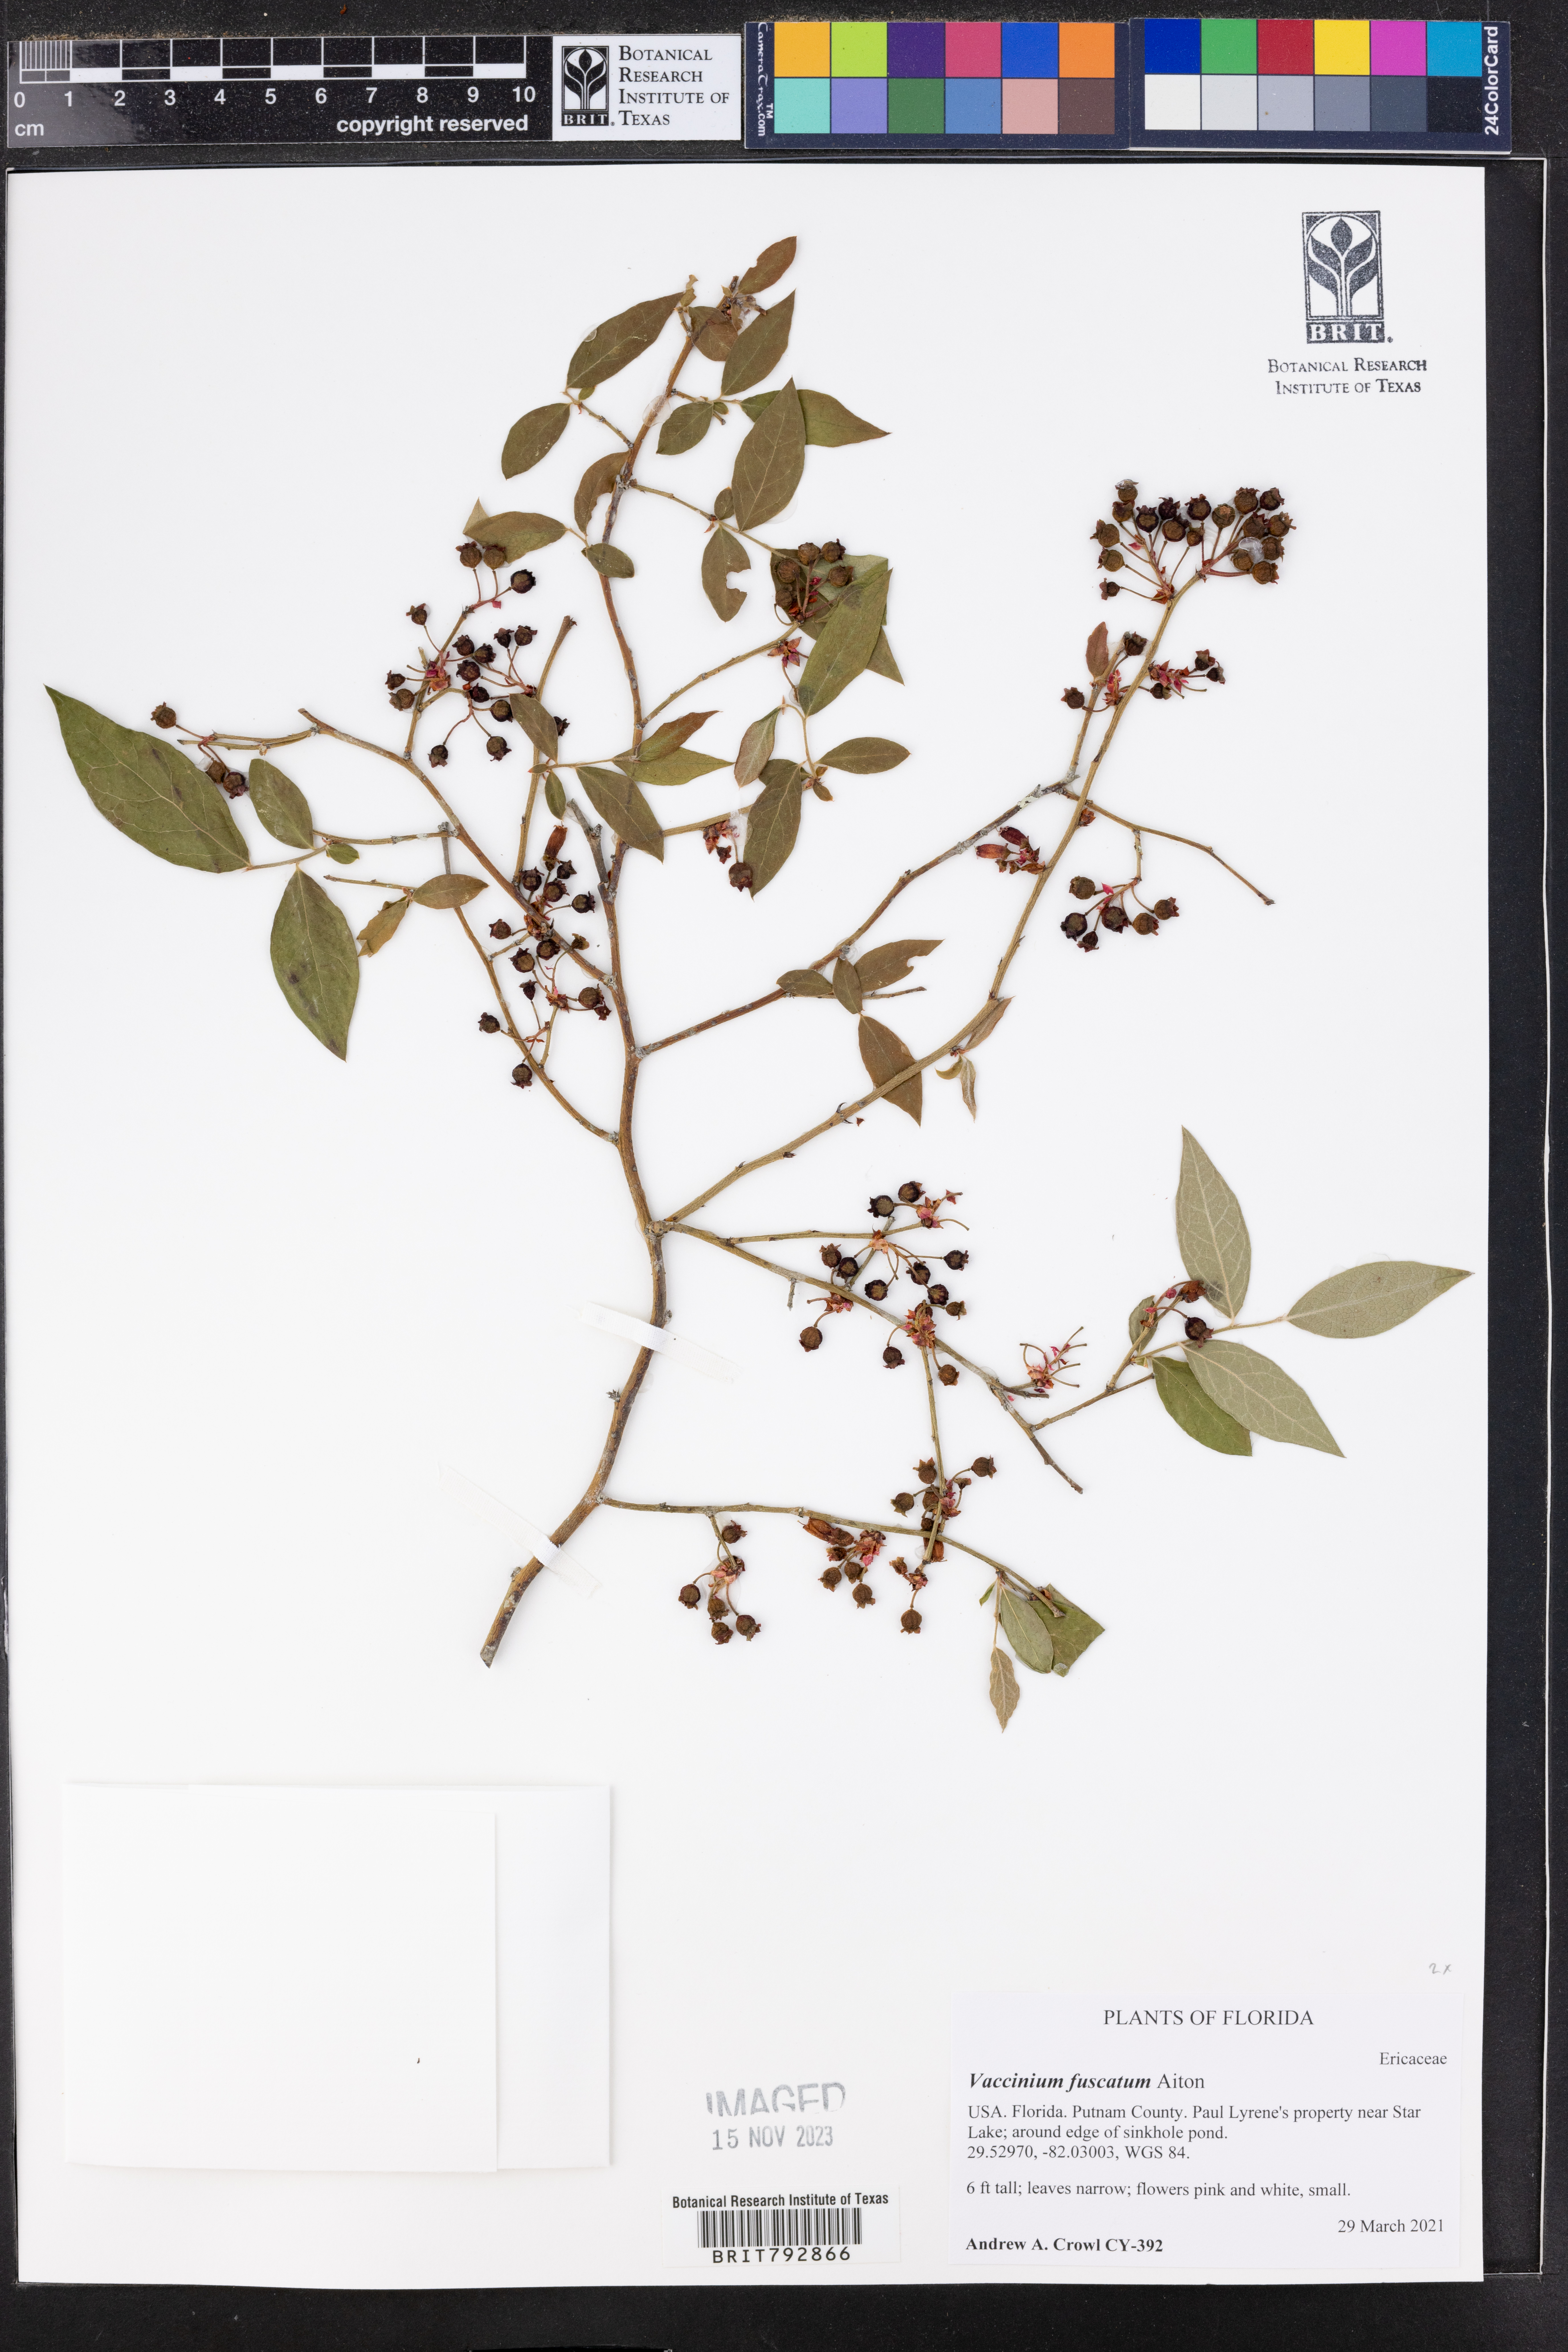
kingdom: Plantae
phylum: Tracheophyta
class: Magnoliopsida
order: Ericales
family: Ericaceae
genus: Vaccinium
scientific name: Vaccinium corymbosum
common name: Blueberry
